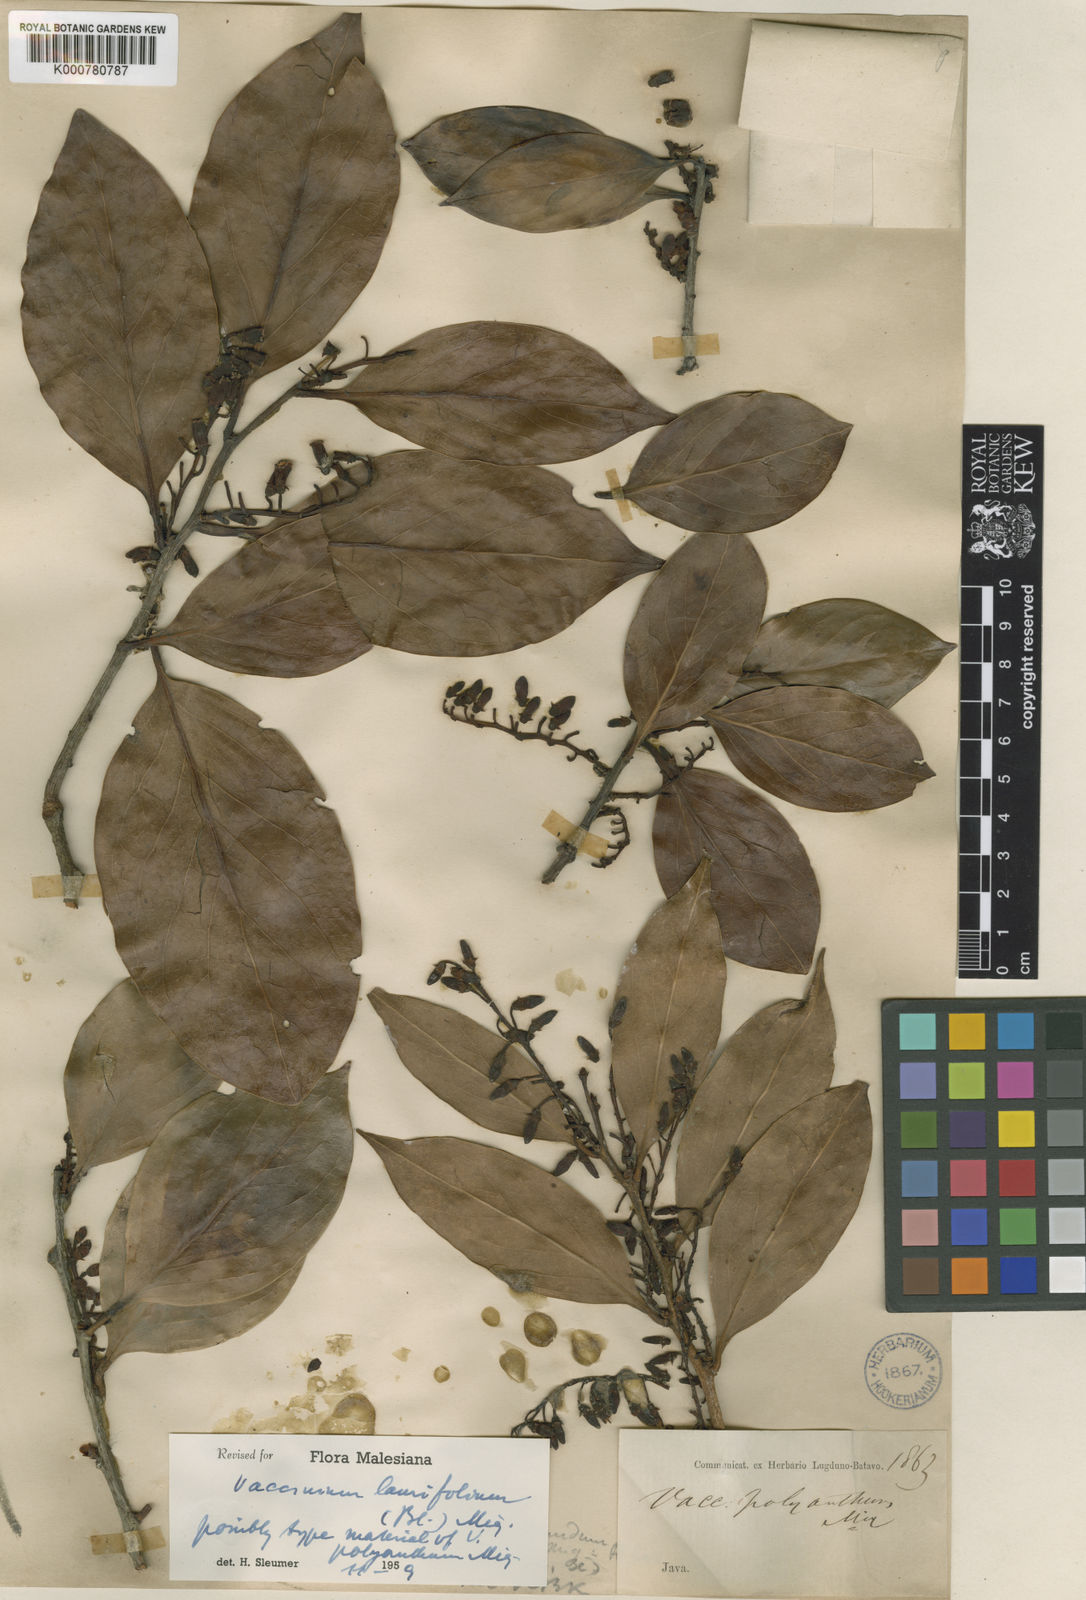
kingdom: Plantae
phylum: Tracheophyta
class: Magnoliopsida
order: Ericales
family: Ericaceae
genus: Vaccinium
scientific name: Vaccinium laurifolium
